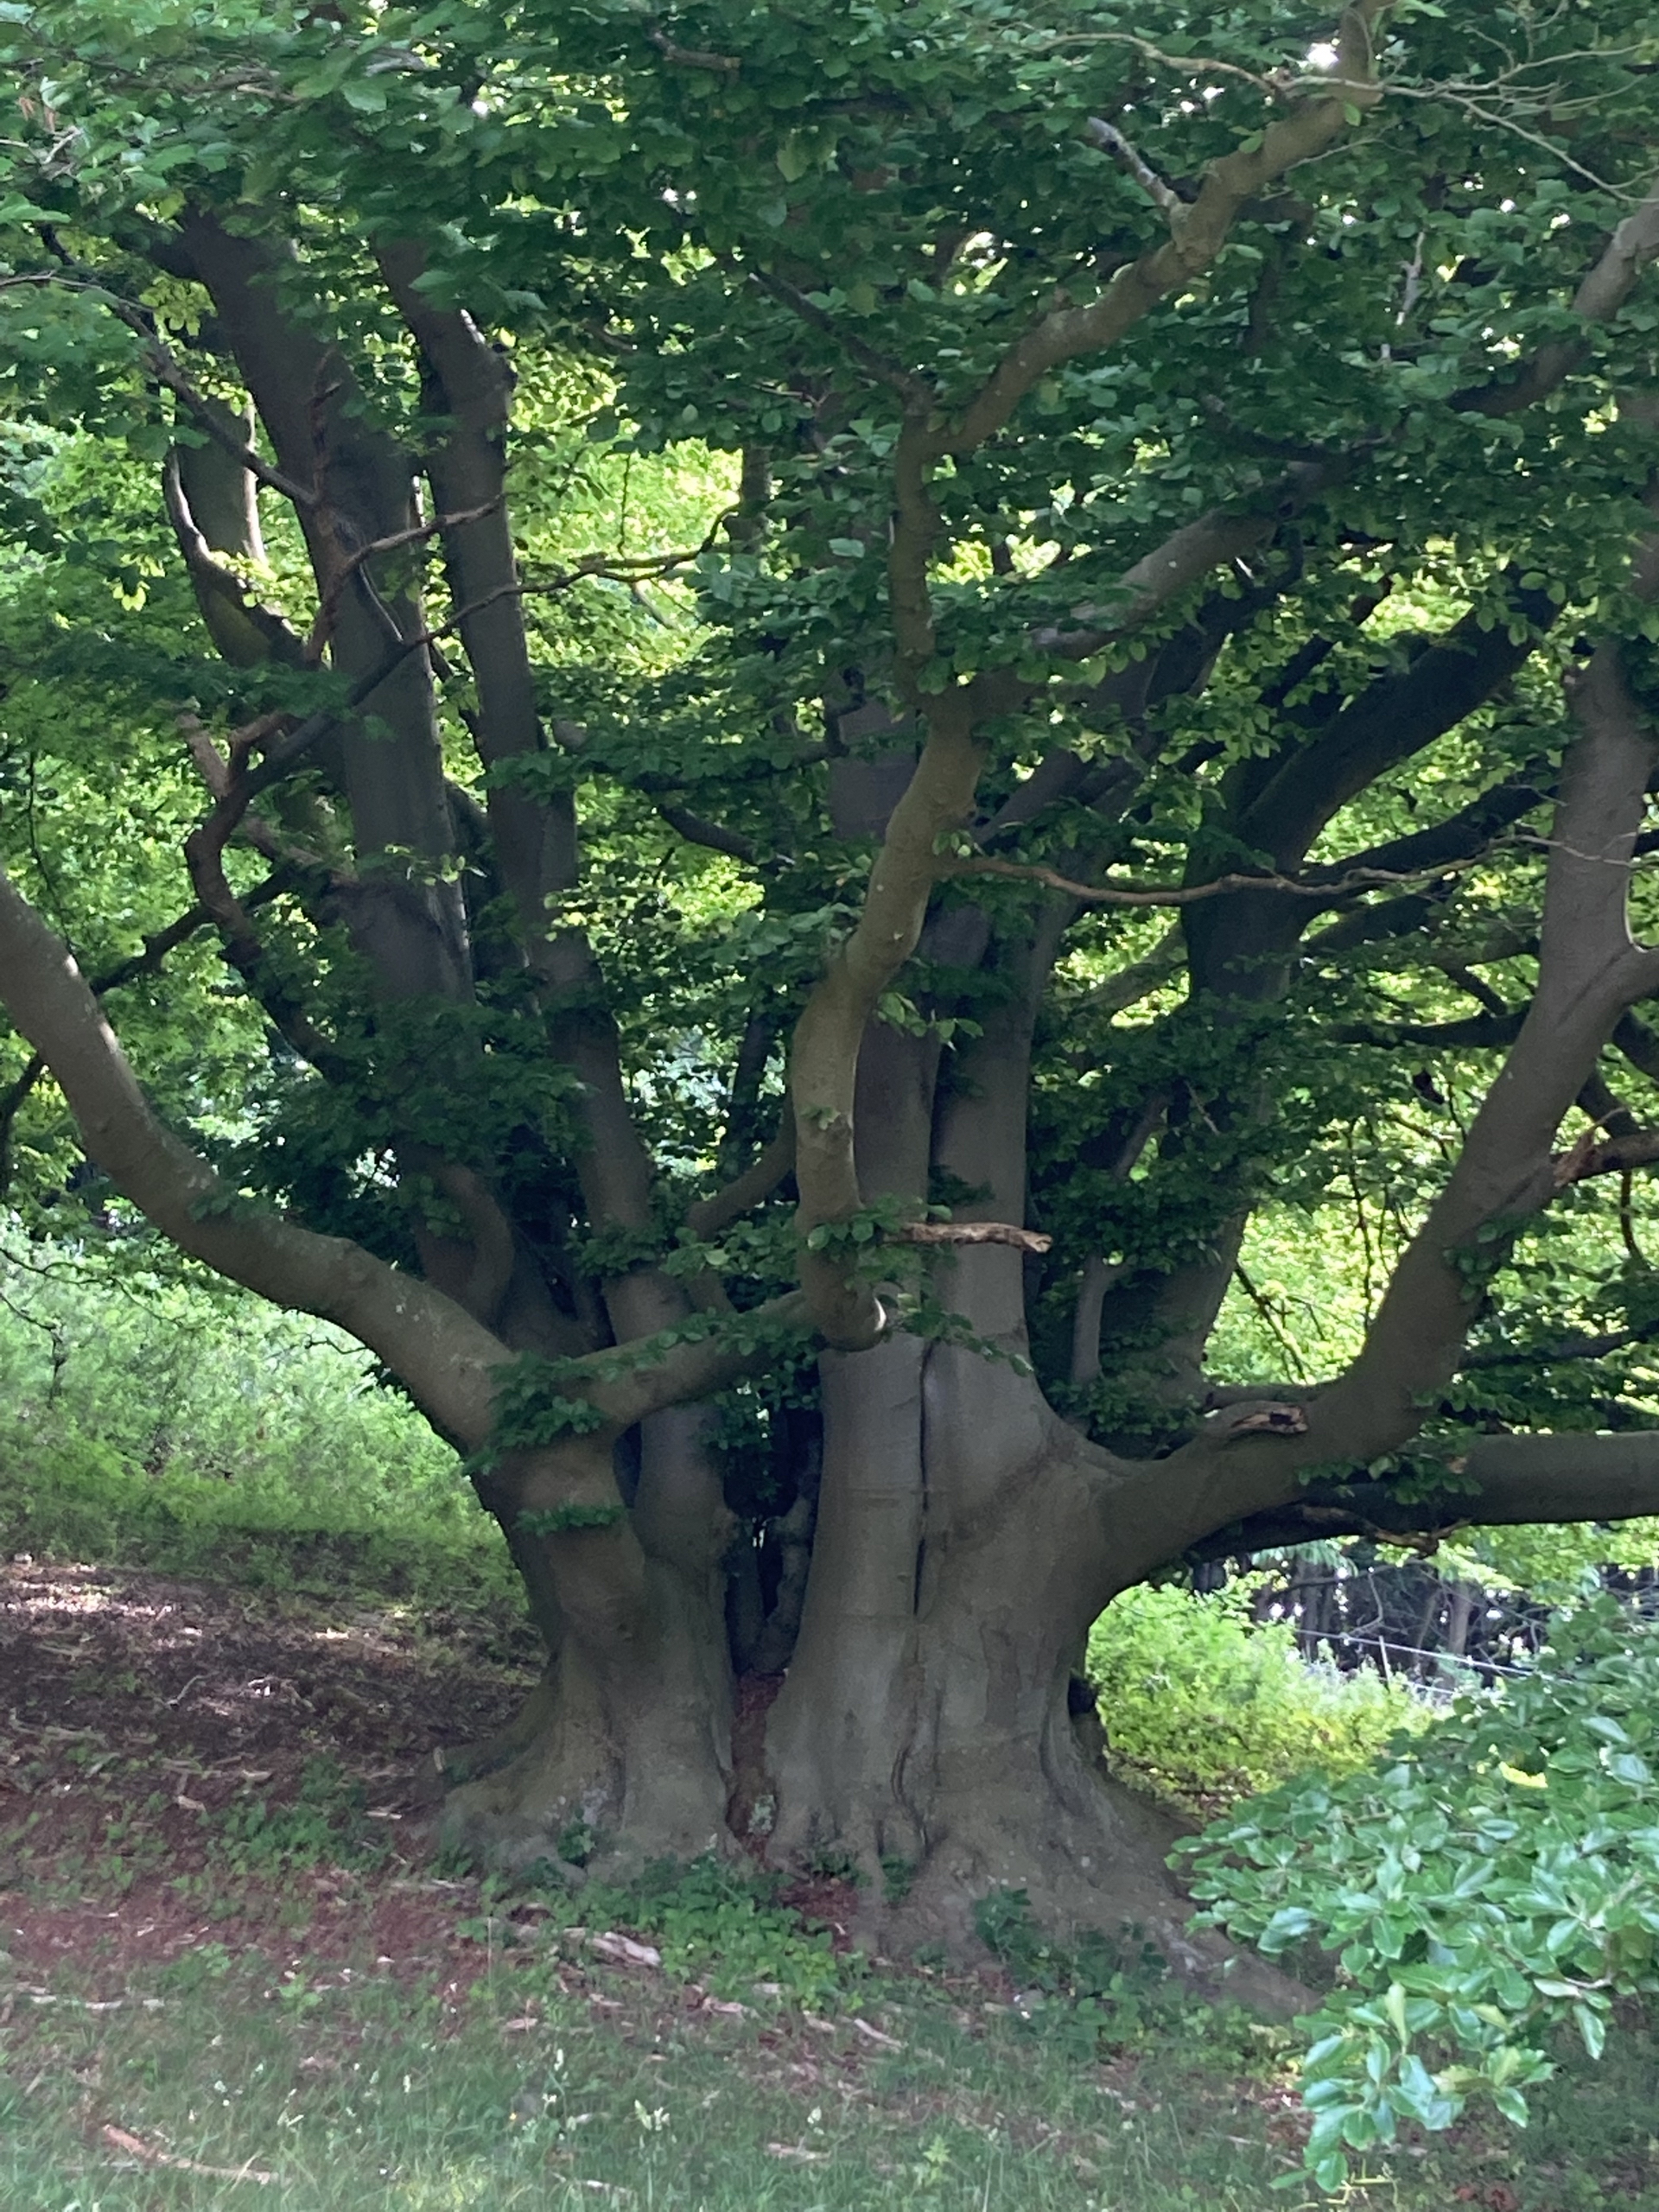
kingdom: Plantae
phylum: Tracheophyta
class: Magnoliopsida
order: Fagales
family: Fagaceae
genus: Fagus
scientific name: Fagus sylvatica
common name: Bøg
